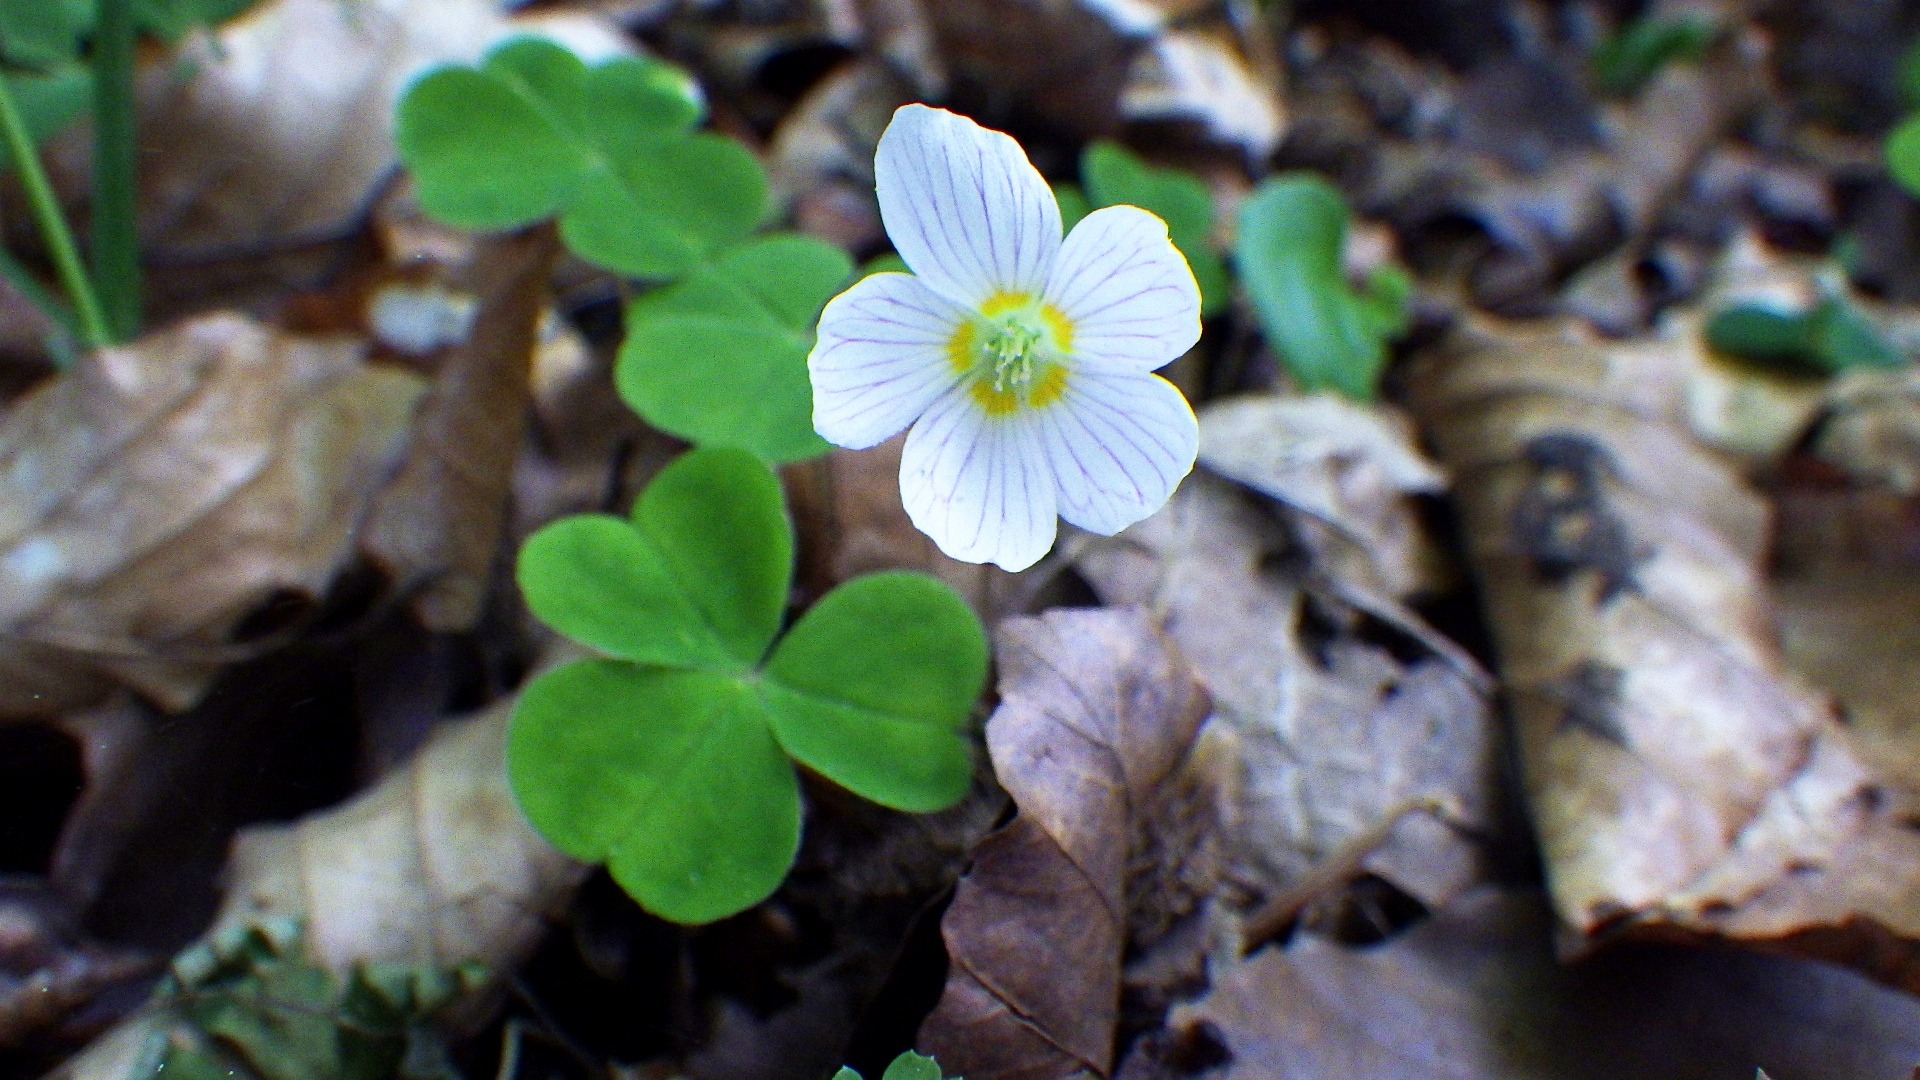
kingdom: Plantae
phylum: Tracheophyta
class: Magnoliopsida
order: Oxalidales
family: Oxalidaceae
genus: Oxalis
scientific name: Oxalis acetosella
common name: Skovsyre
